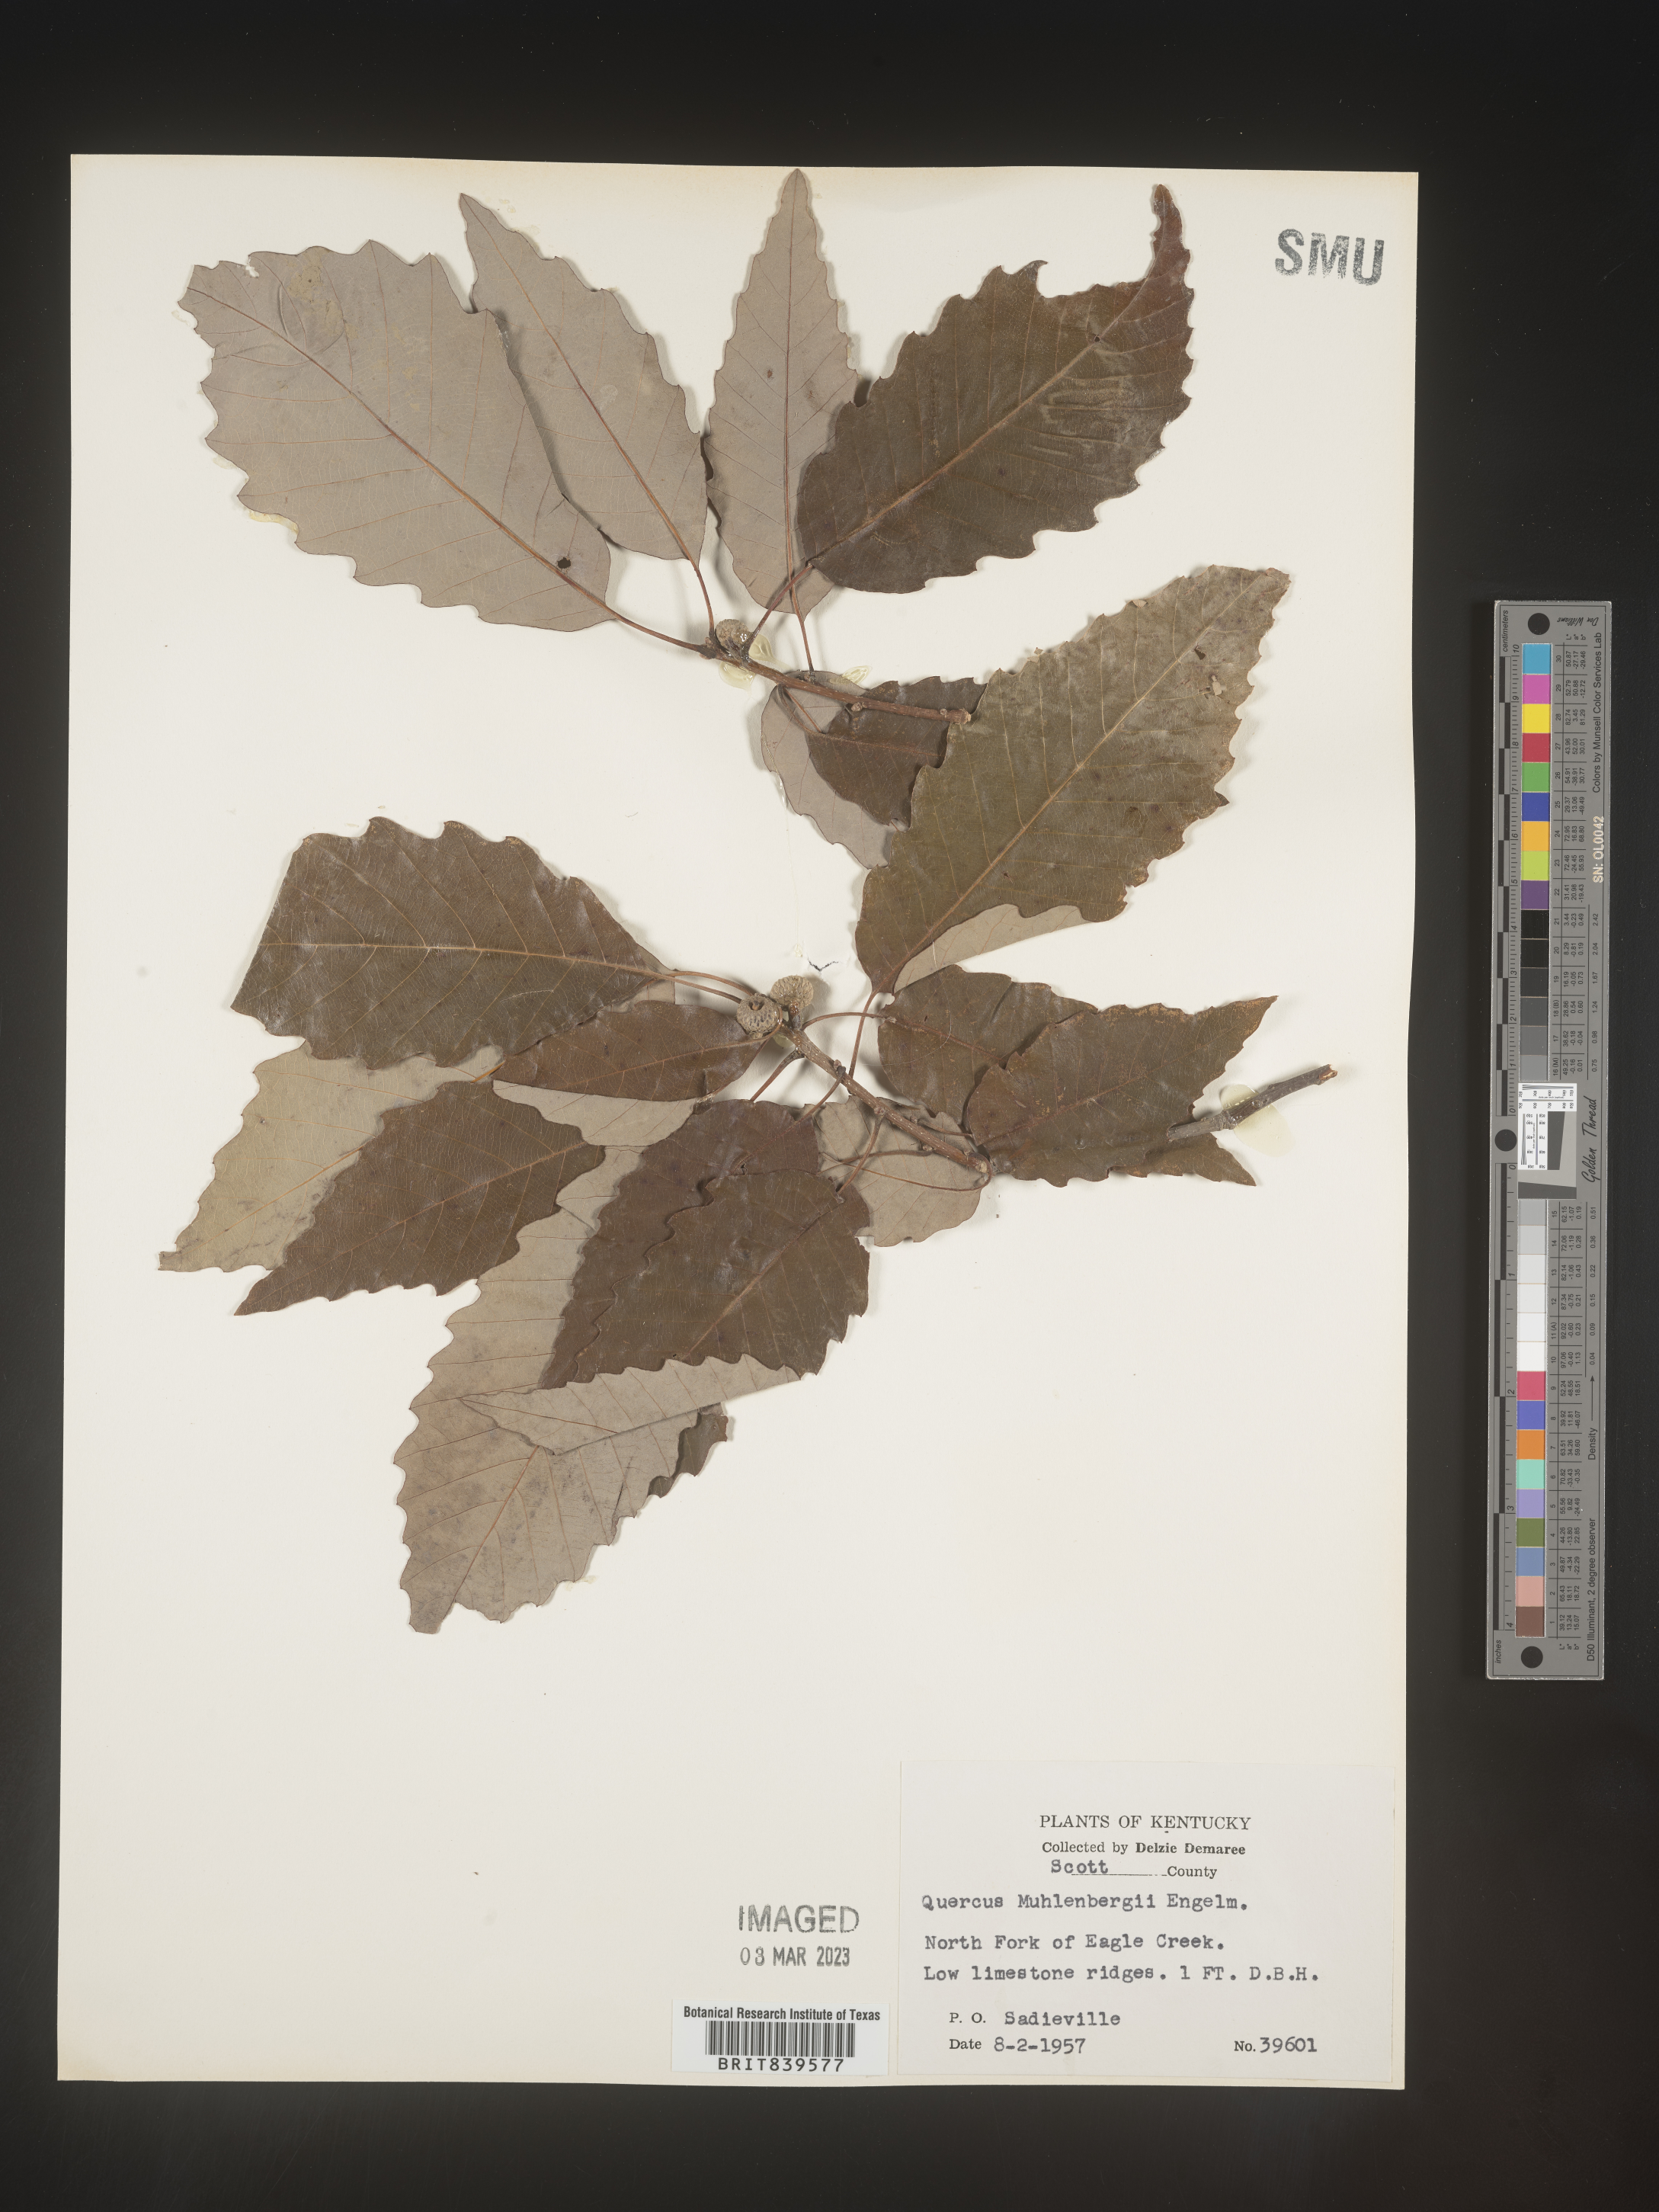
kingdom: Plantae
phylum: Tracheophyta
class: Magnoliopsida
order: Fagales
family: Fagaceae
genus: Quercus
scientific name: Quercus muehlenbergii
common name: Chinkapin oak
